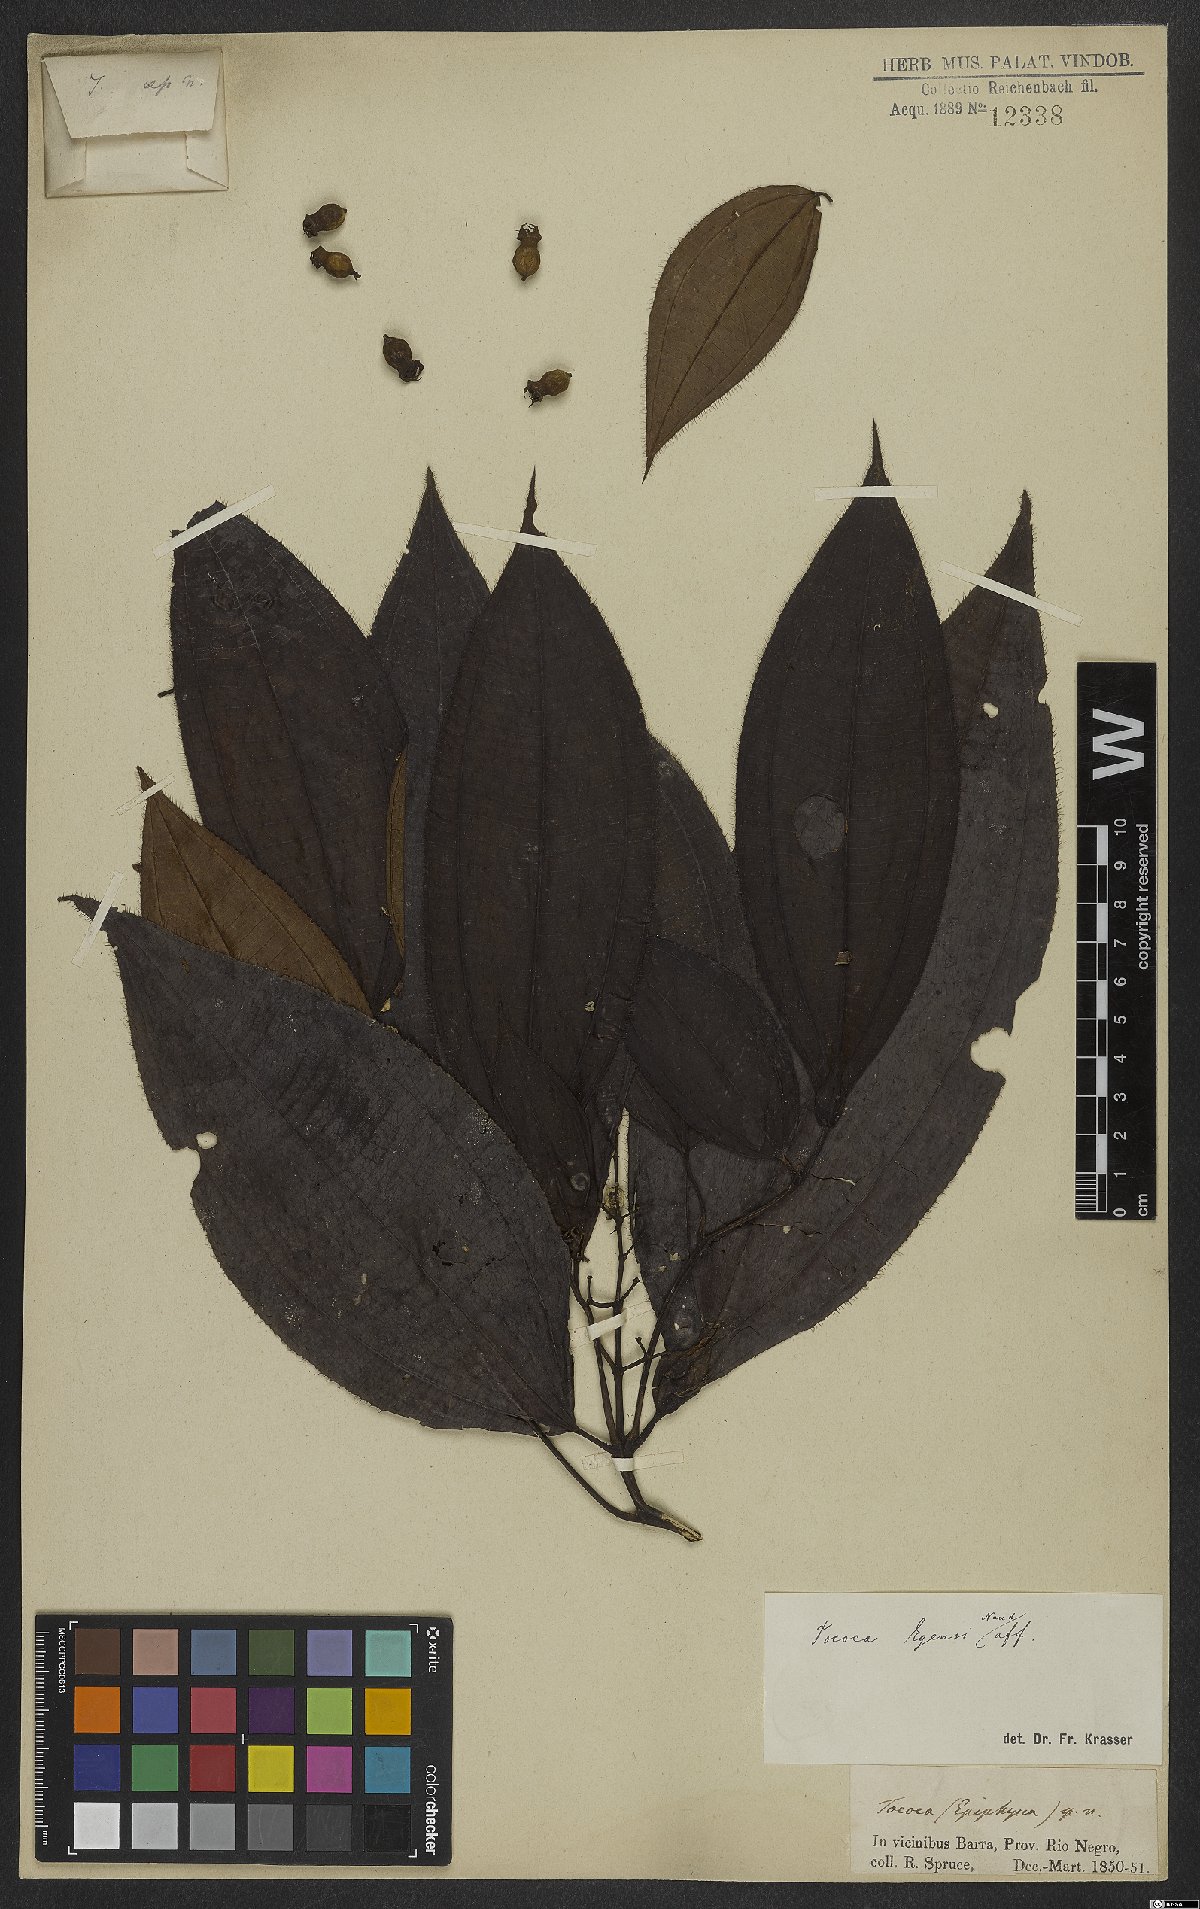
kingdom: Plantae
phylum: Tracheophyta
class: Magnoliopsida
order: Myrtales
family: Melastomataceae
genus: Miconia
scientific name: Miconia tococoronata
